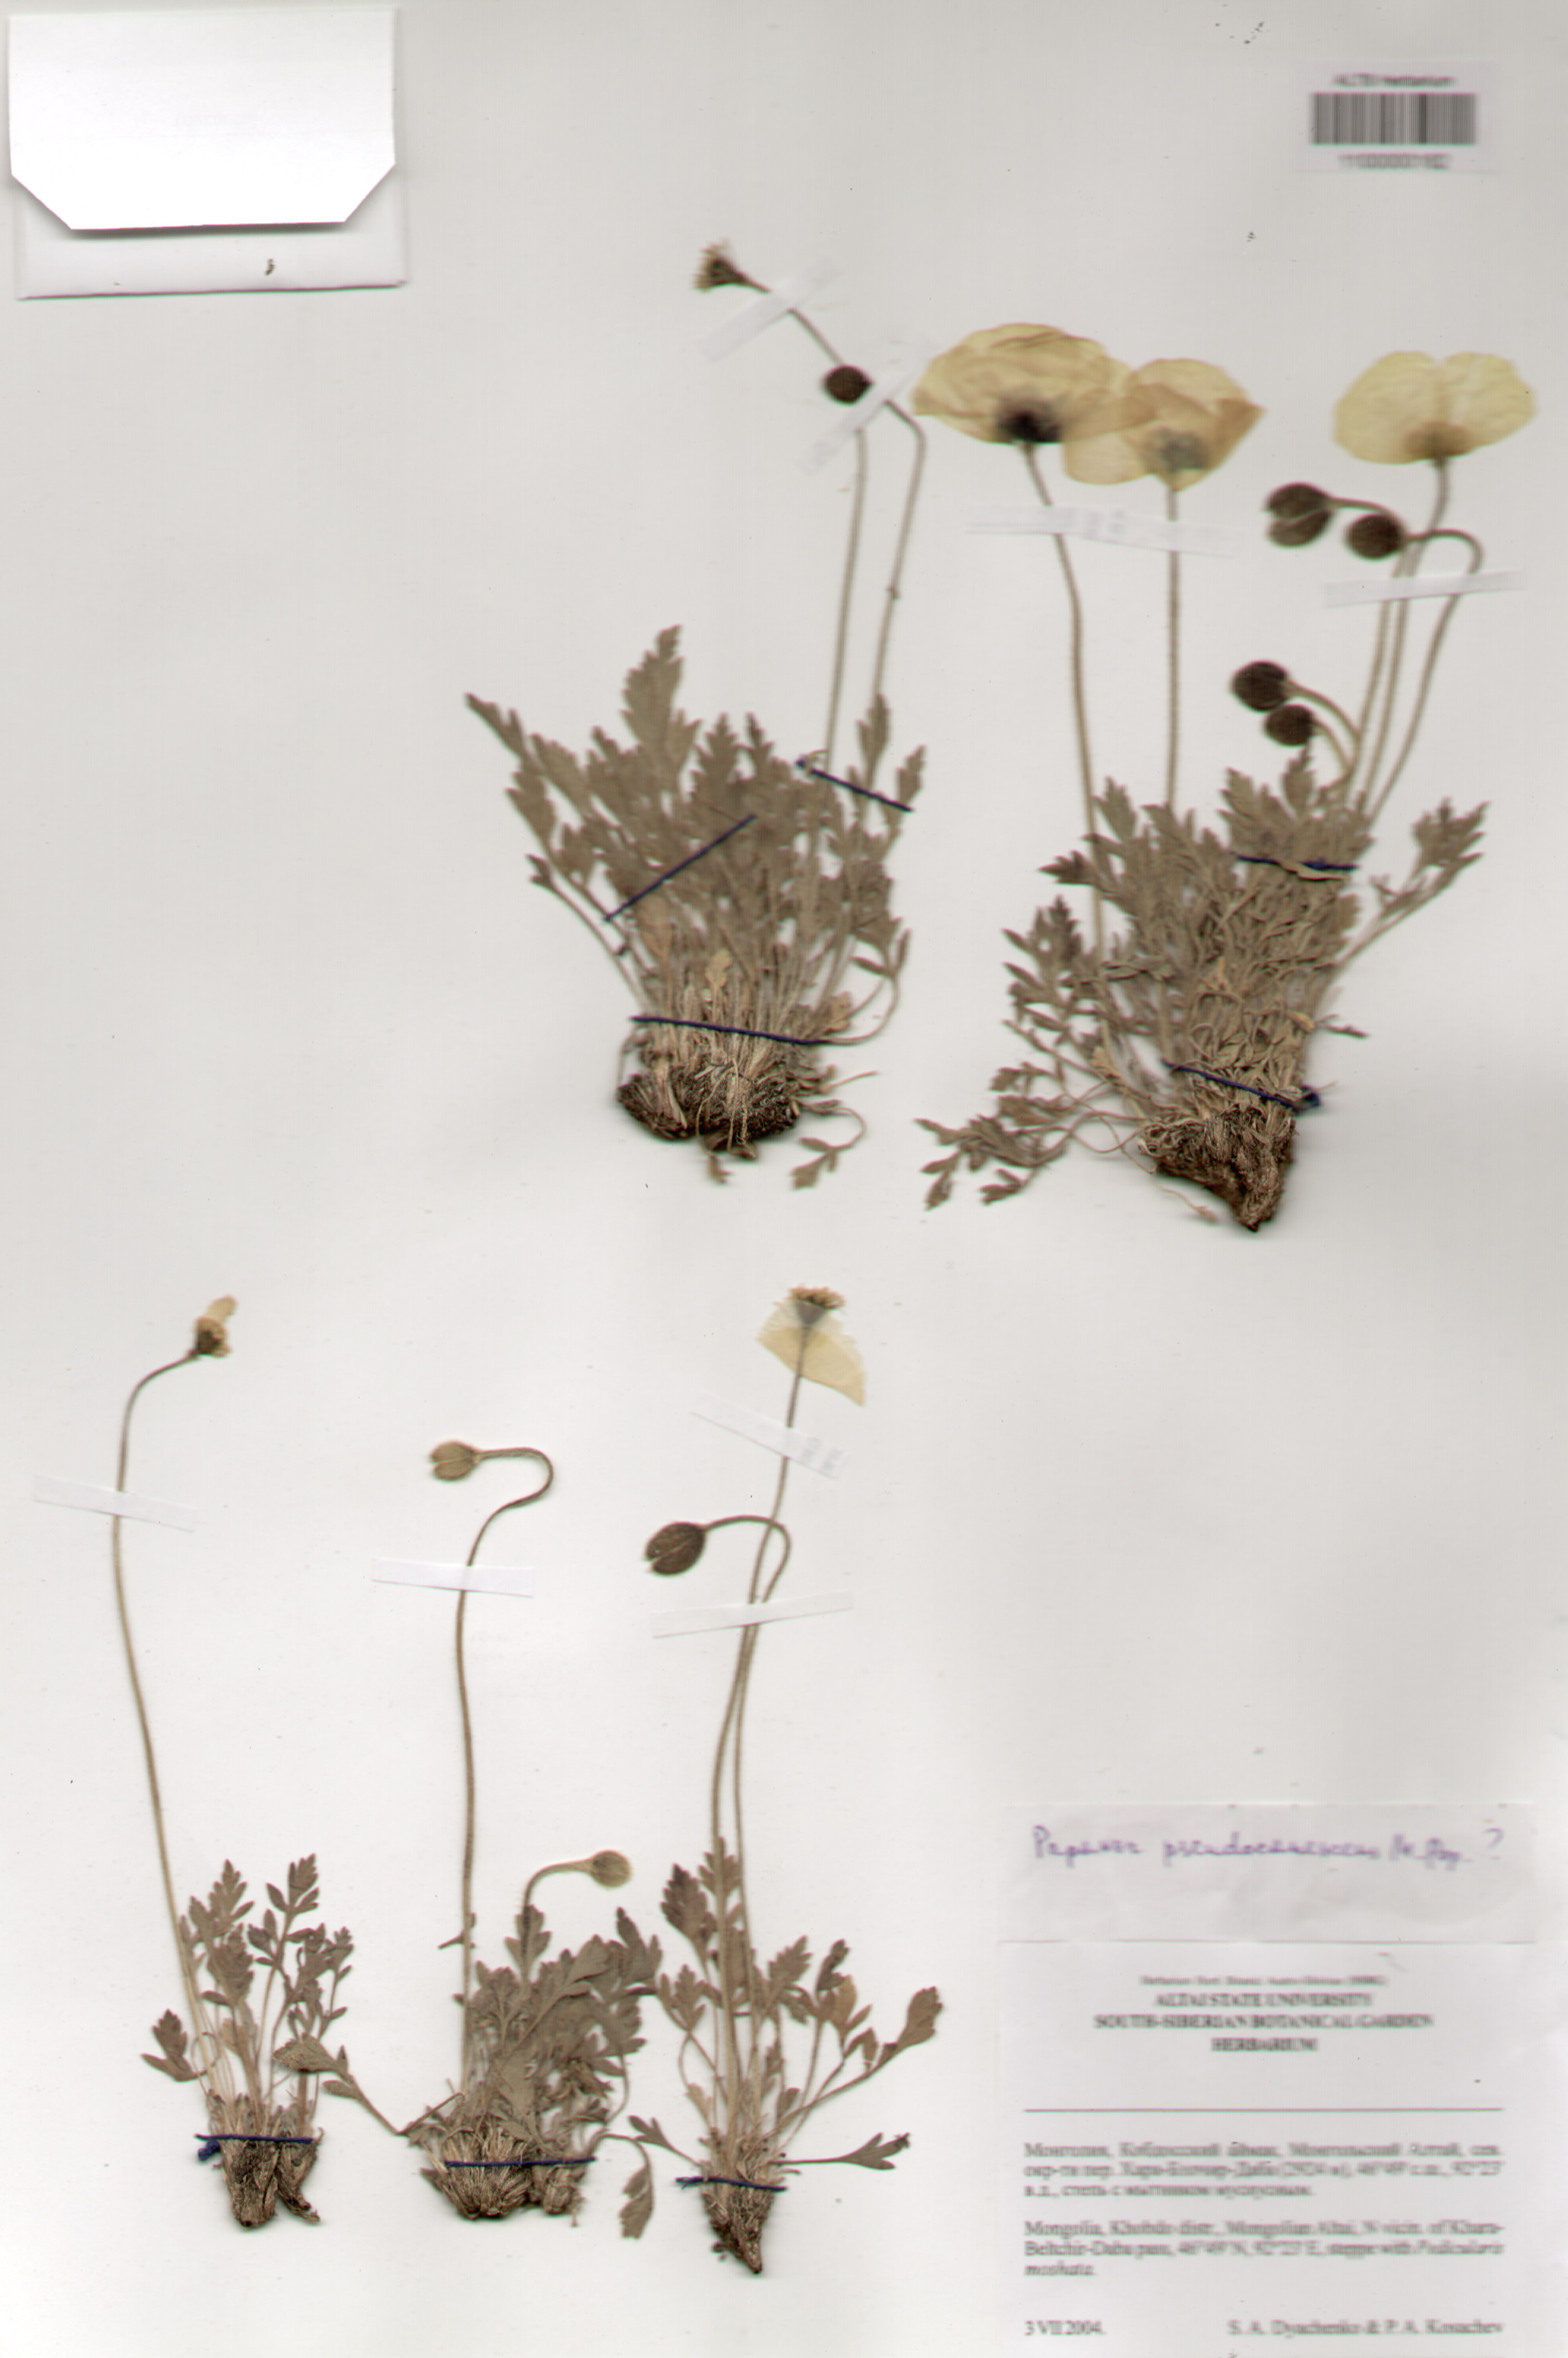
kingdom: Plantae
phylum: Tracheophyta
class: Magnoliopsida
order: Ranunculales
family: Papaveraceae
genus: Papaver
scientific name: Papaver canescens
